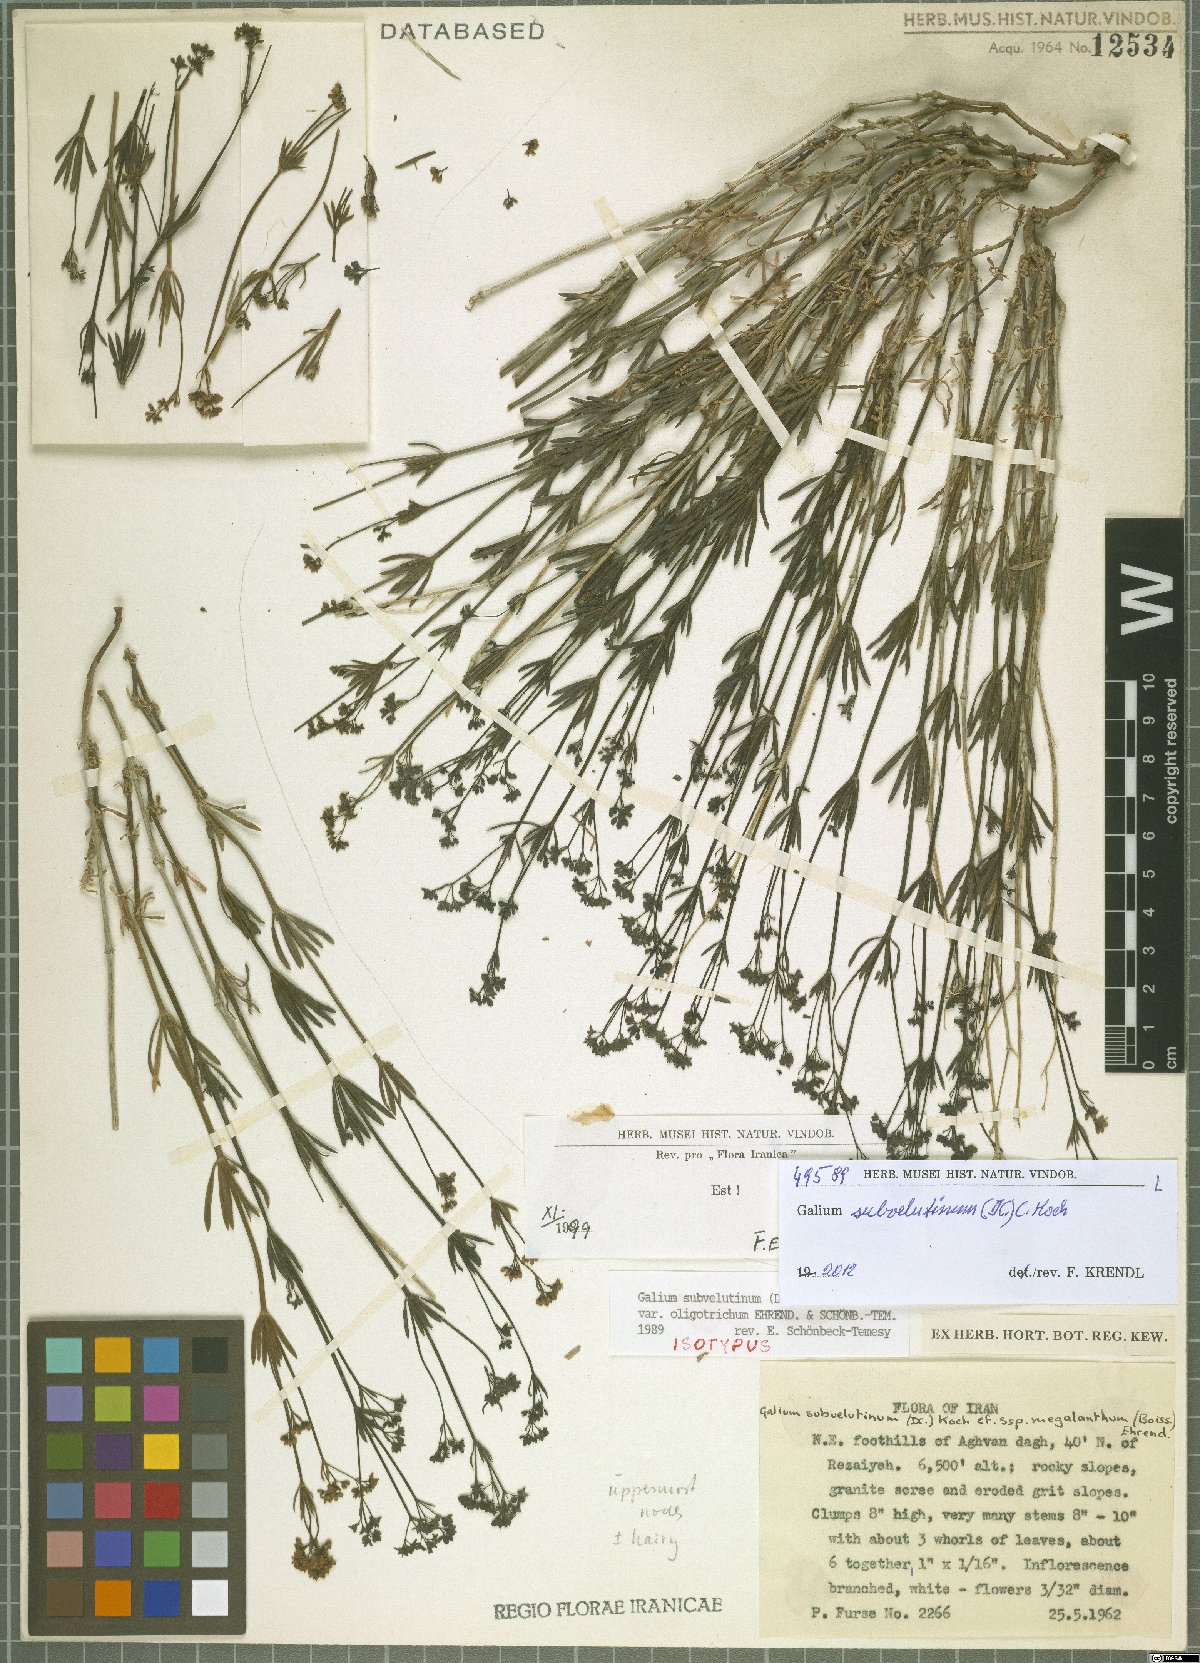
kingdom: Plantae
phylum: Tracheophyta
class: Magnoliopsida
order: Gentianales
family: Rubiaceae
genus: Galium
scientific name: Galium subvelutinum
